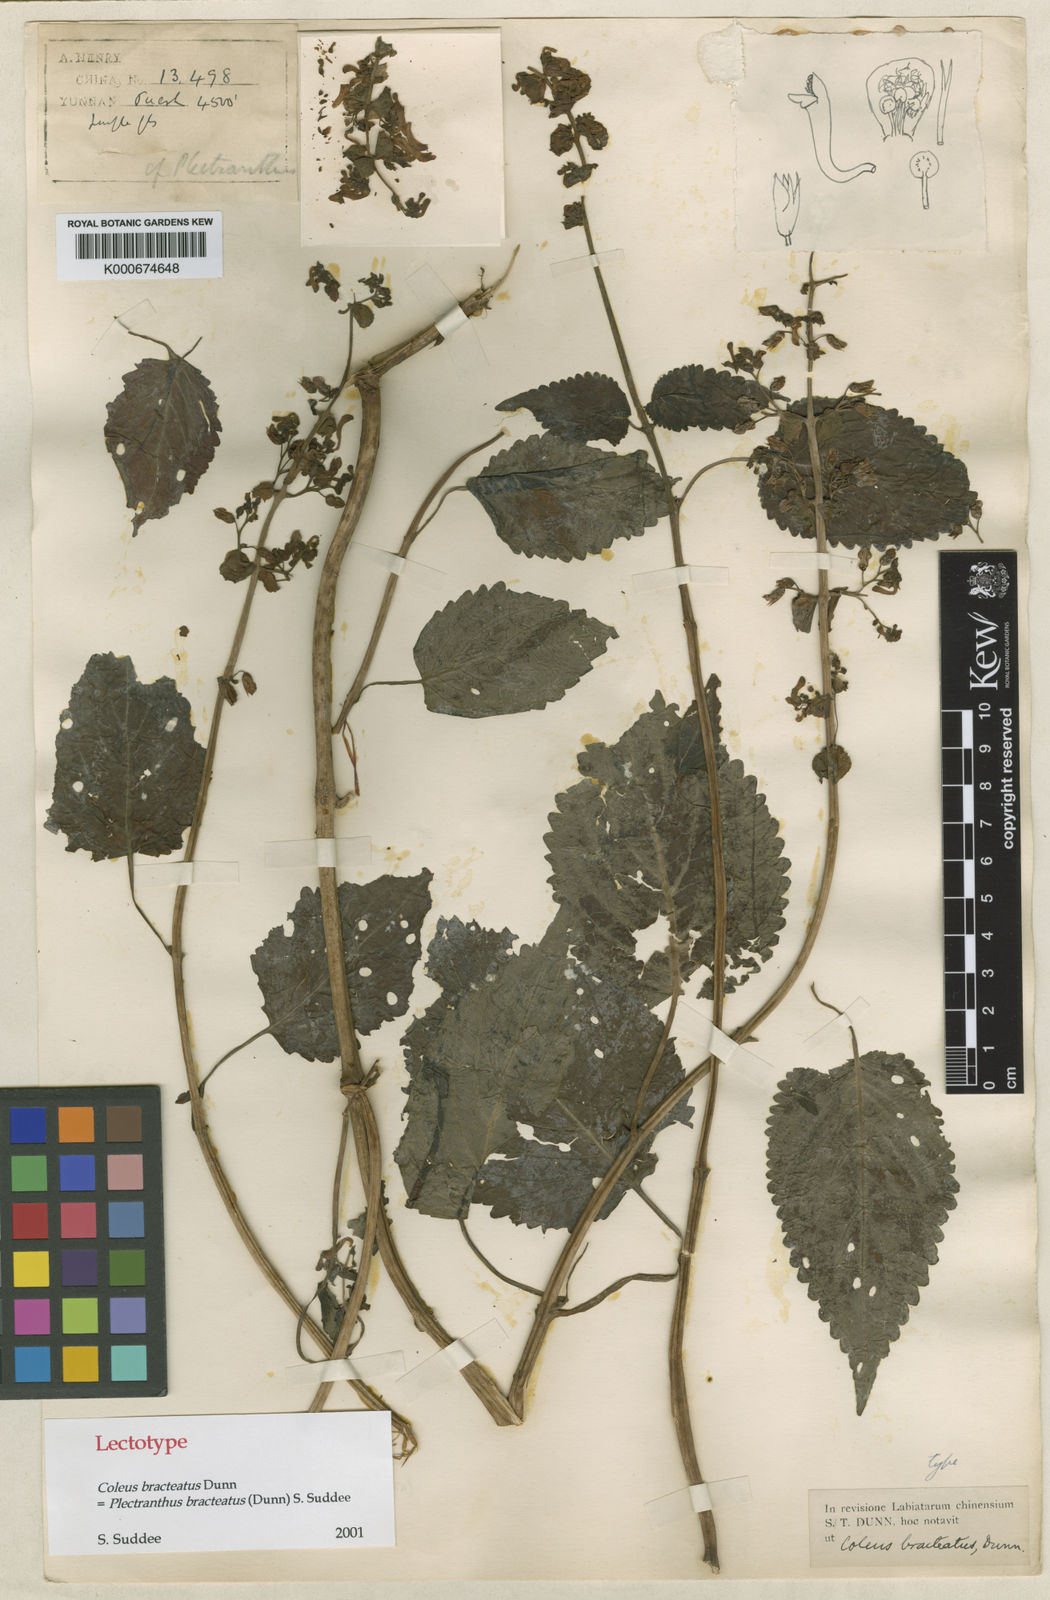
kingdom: Plantae
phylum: Tracheophyta
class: Magnoliopsida
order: Lamiales
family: Lamiaceae
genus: Coleus
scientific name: Coleus bracteatus
